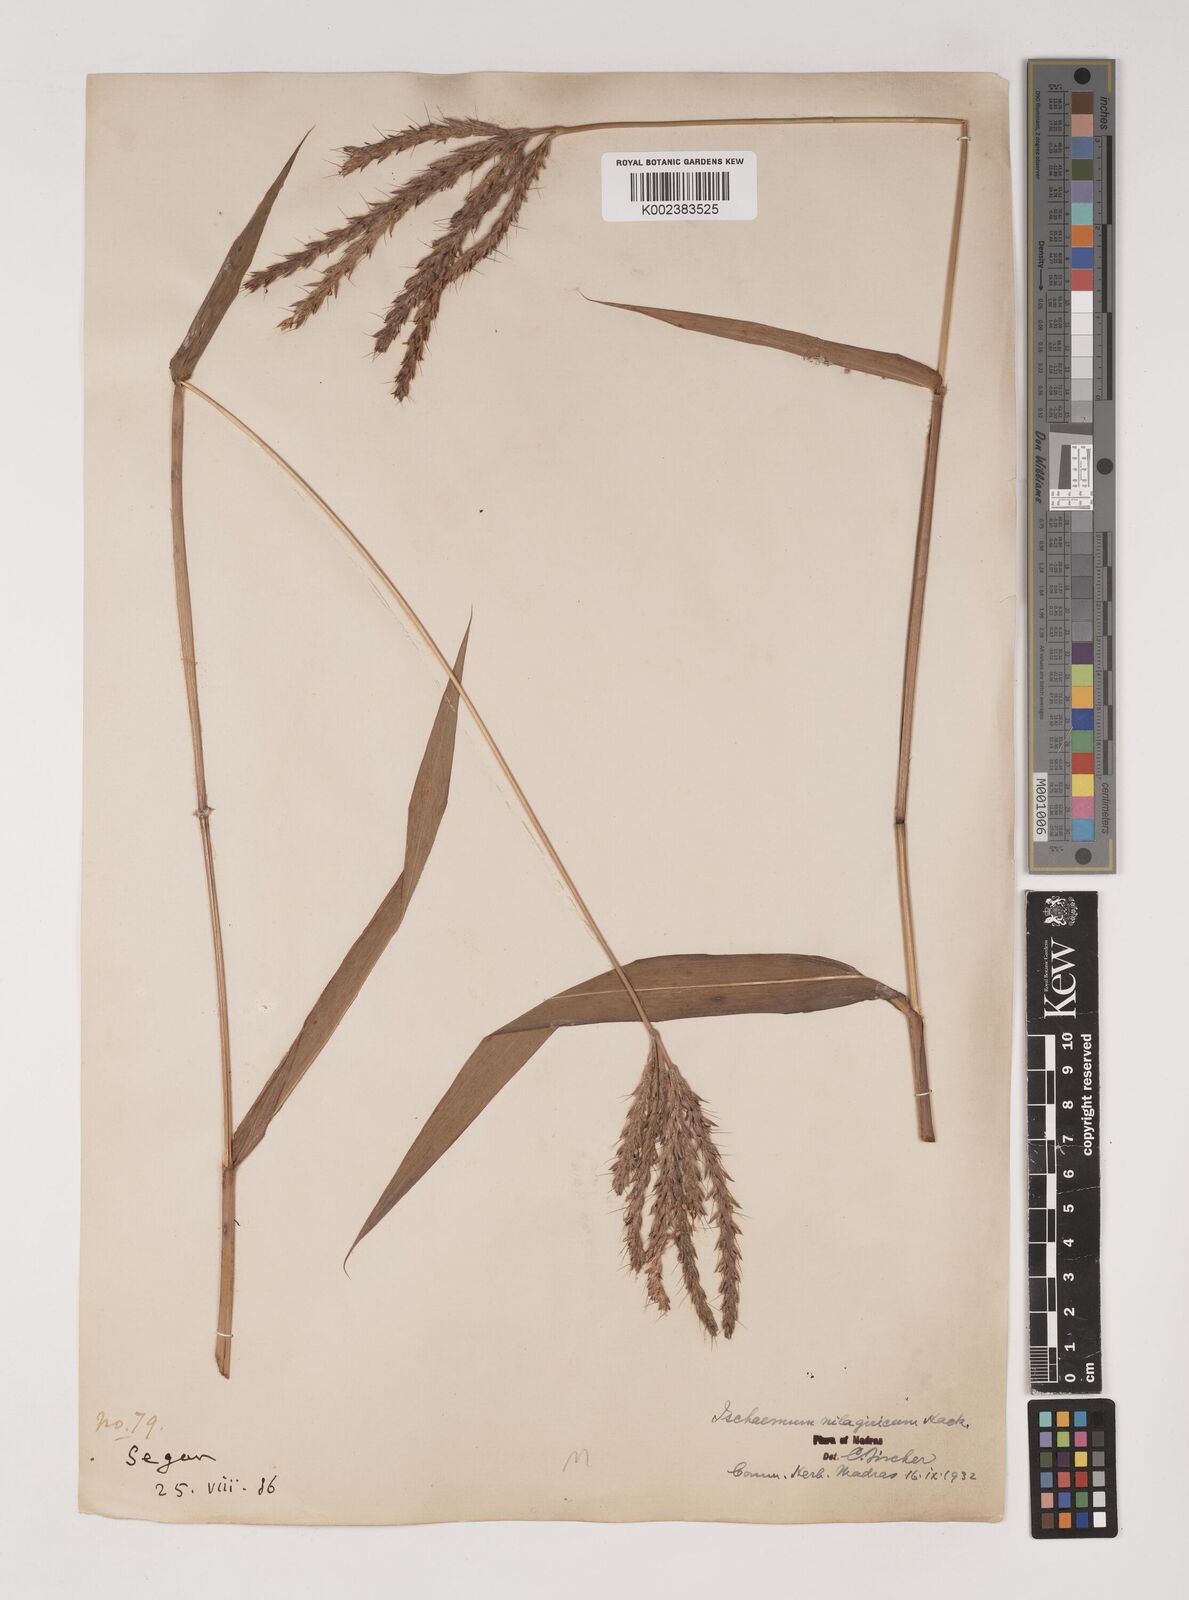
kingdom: Plantae
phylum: Tracheophyta
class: Liliopsida
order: Poales
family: Poaceae
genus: Ischaemum
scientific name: Ischaemum
